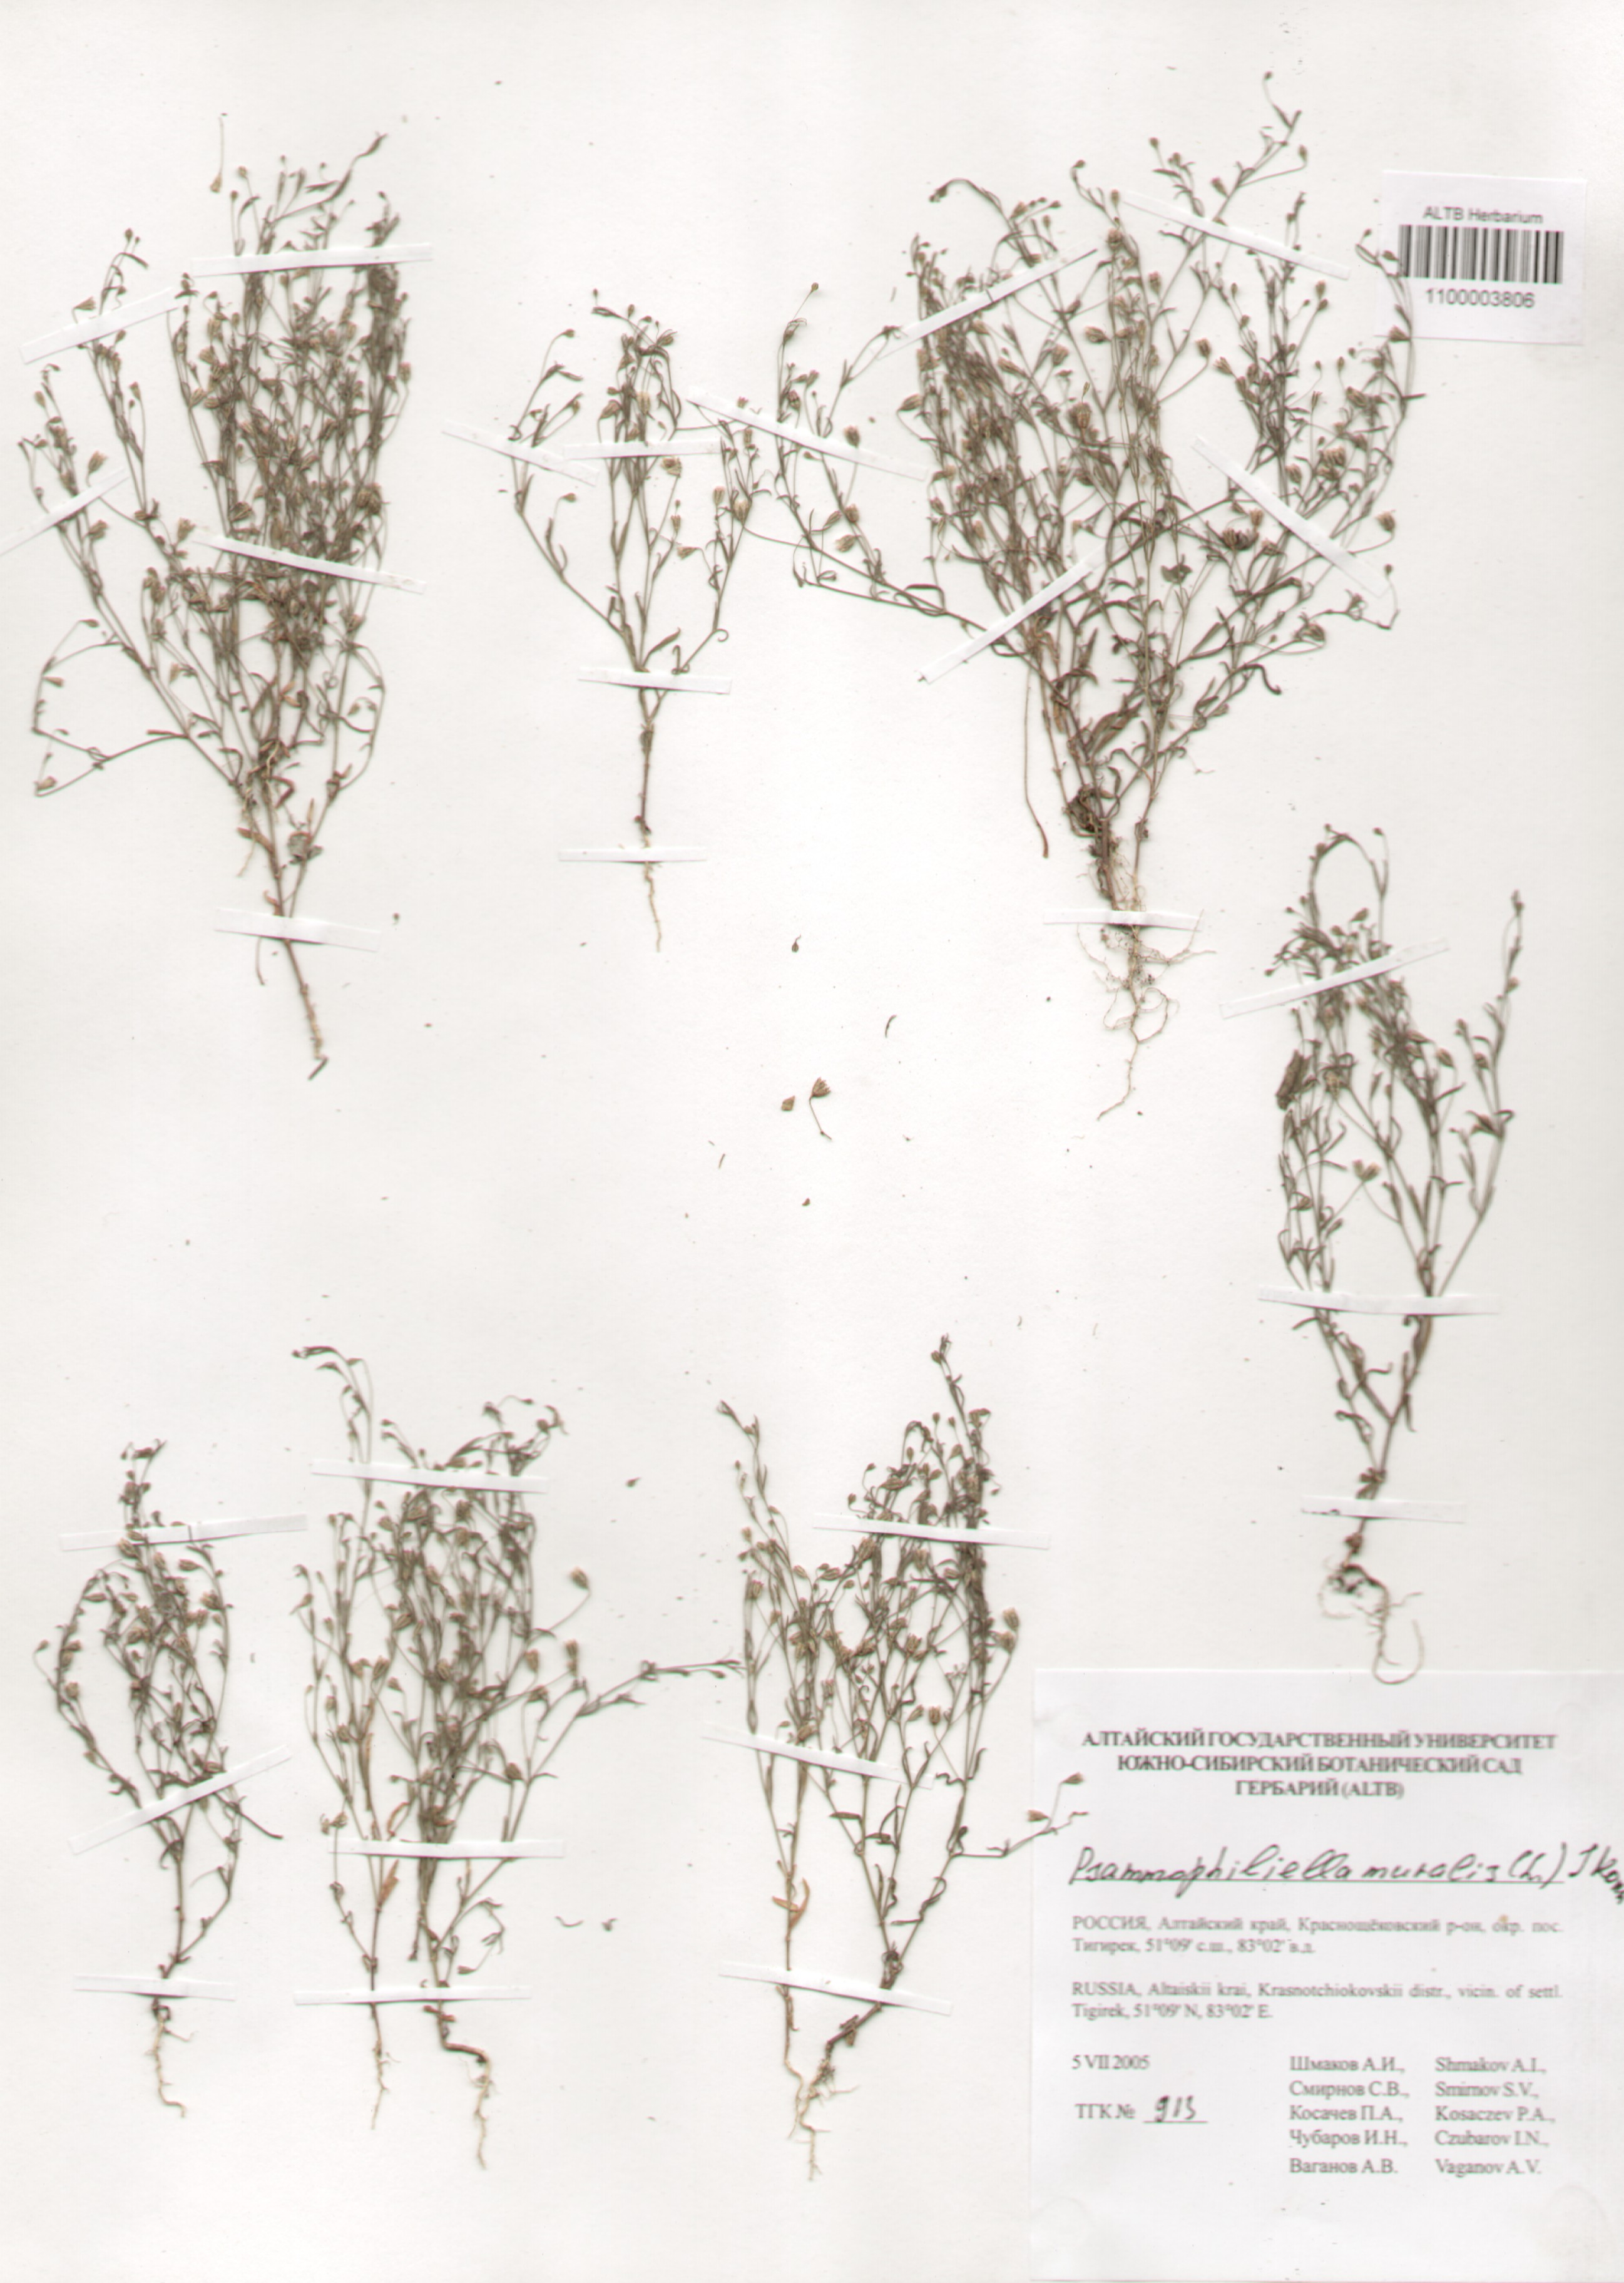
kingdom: Plantae
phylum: Tracheophyta
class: Magnoliopsida
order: Caryophyllales
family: Caryophyllaceae
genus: Psammophiliella
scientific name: Psammophiliella muralis
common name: Cushion baby's-breath
